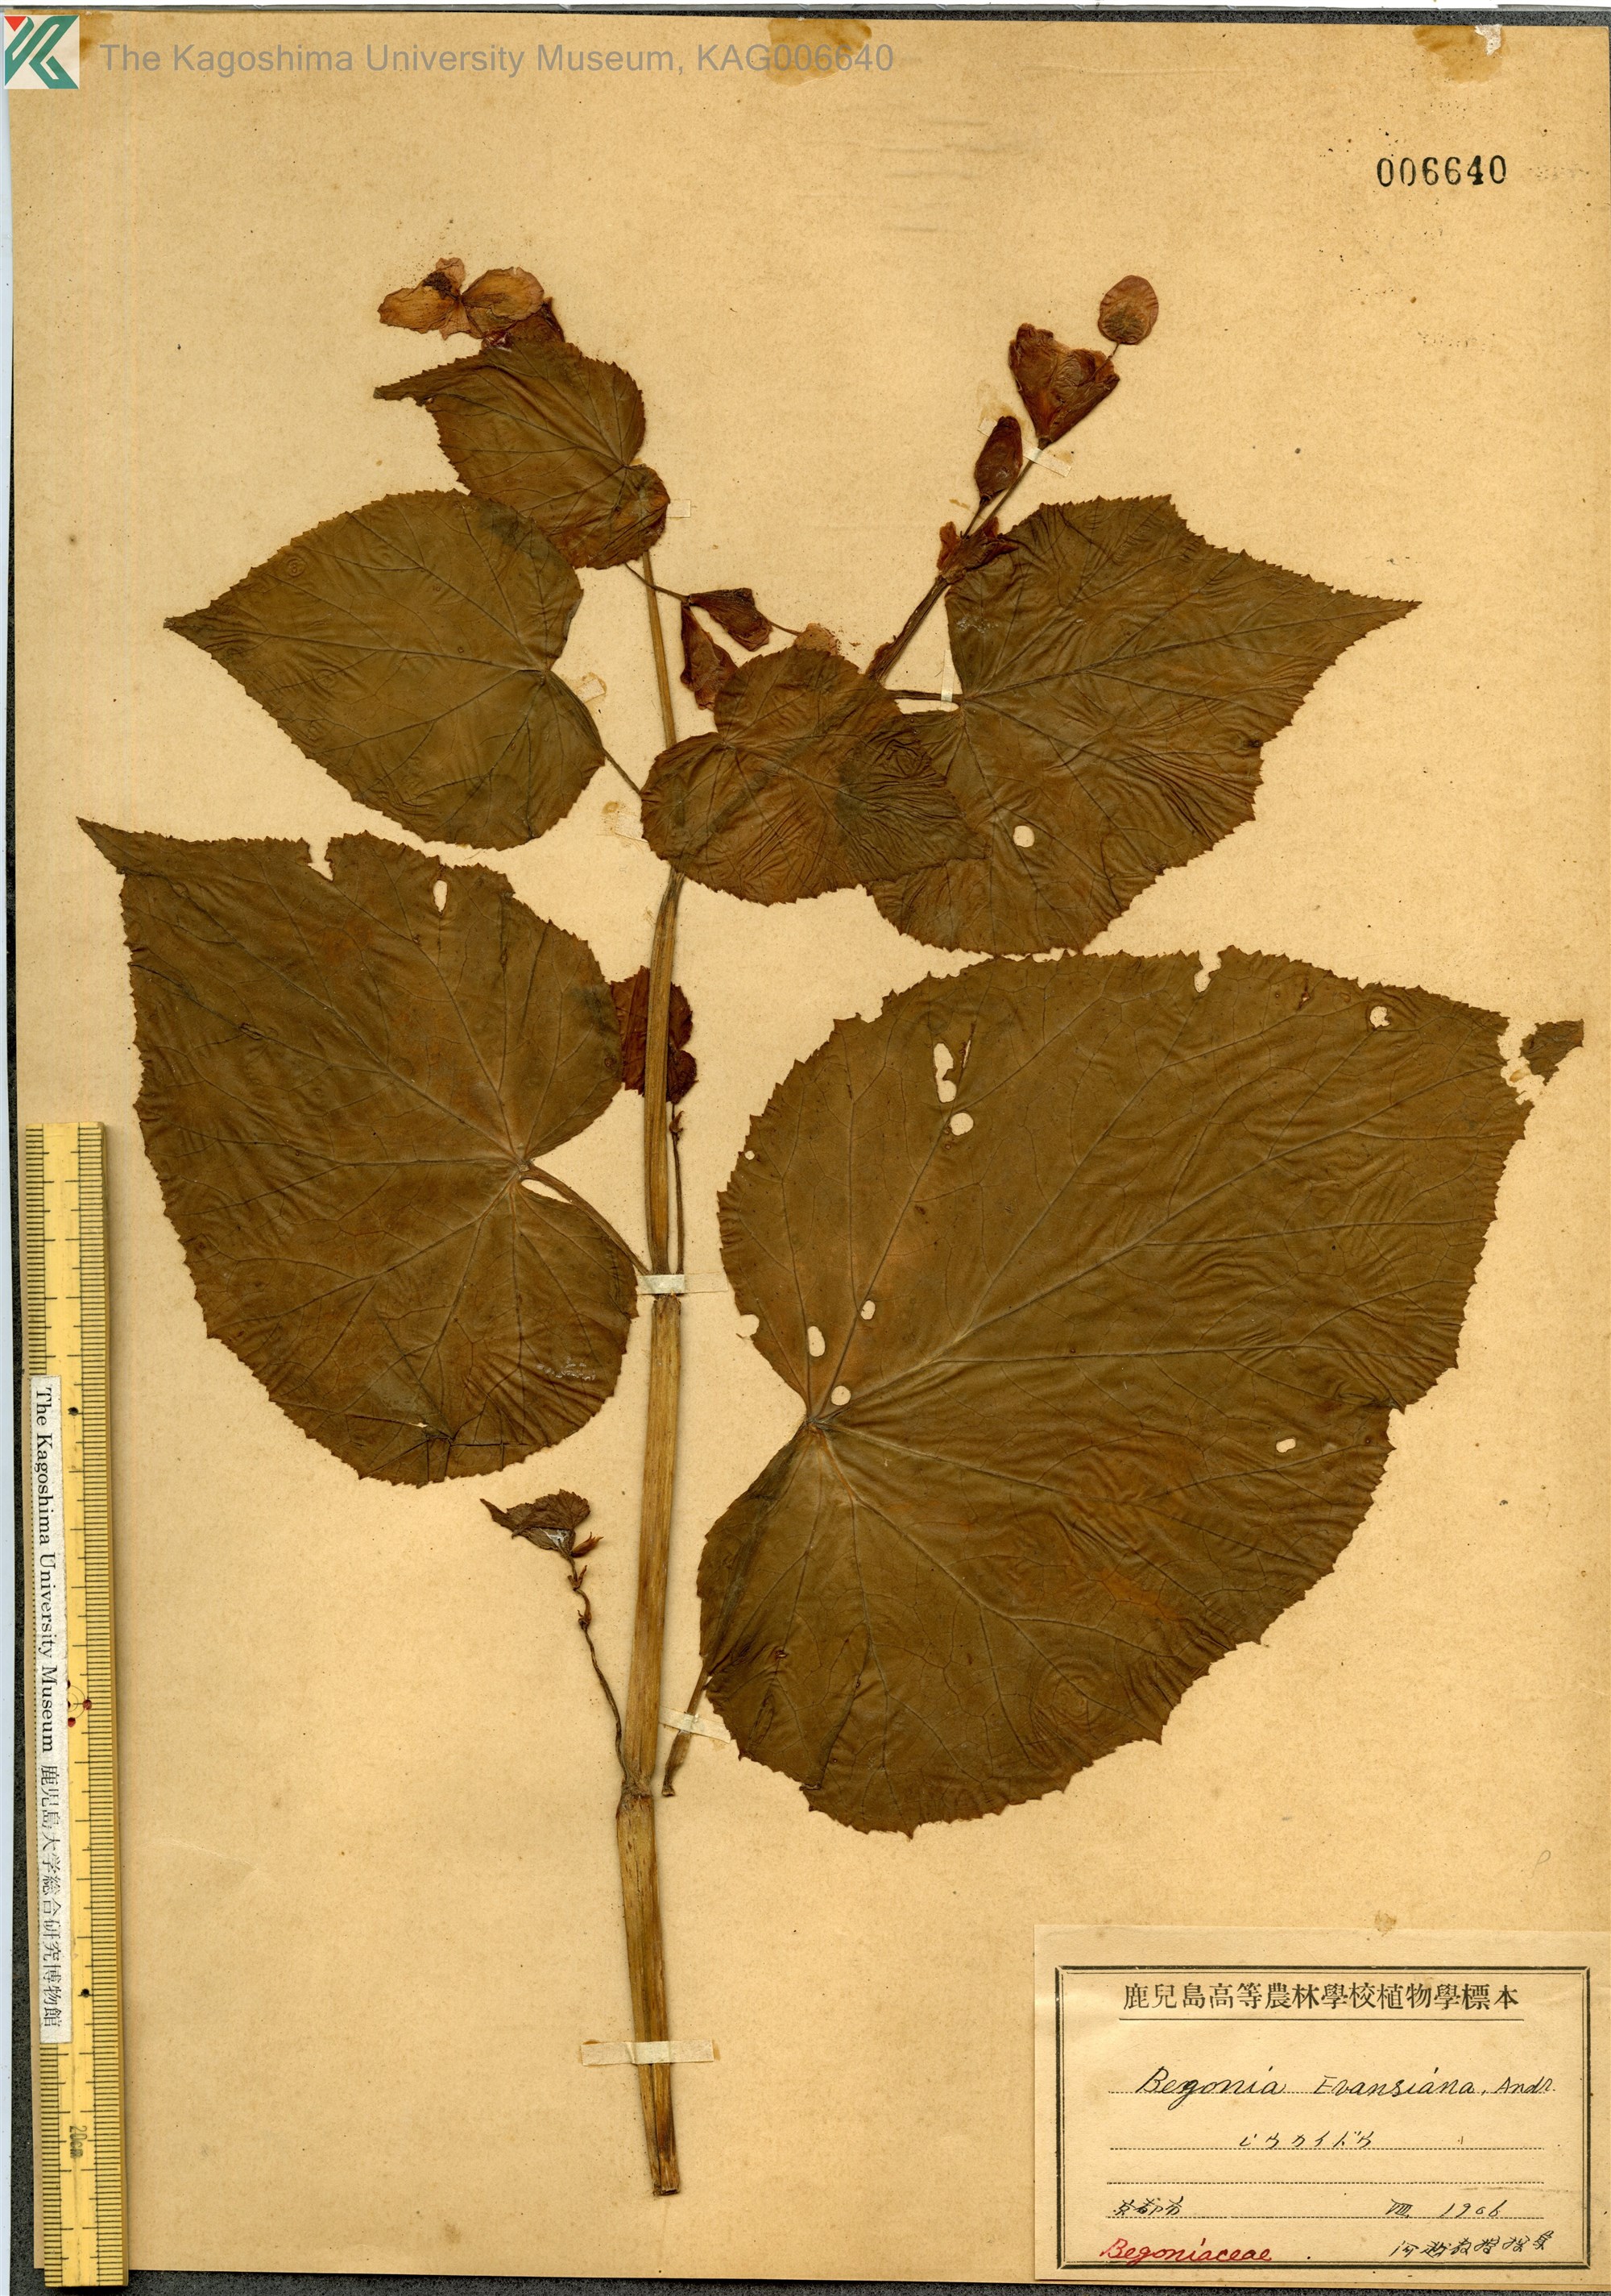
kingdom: Plantae
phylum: Tracheophyta
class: Magnoliopsida
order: Cucurbitales
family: Begoniaceae
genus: Begonia
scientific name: Begonia grandis
